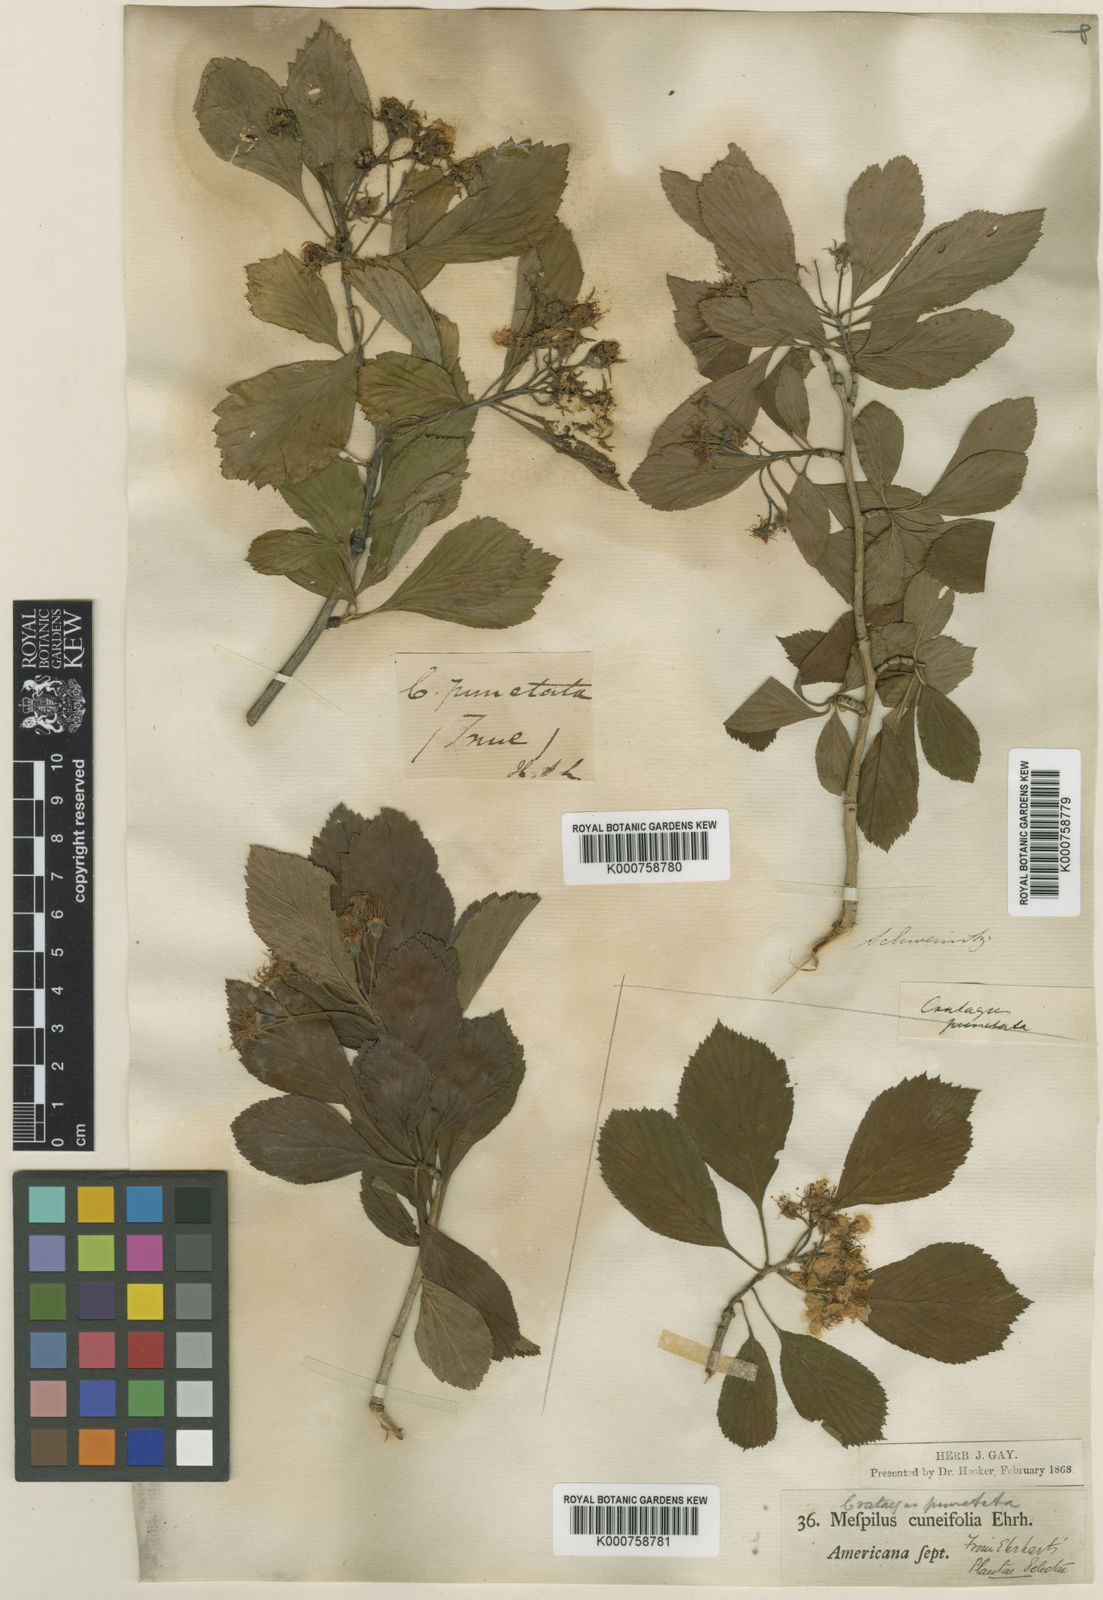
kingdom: Plantae
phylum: Tracheophyta
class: Magnoliopsida
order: Rosales
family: Rosaceae
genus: Crataegus
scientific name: Crataegus punctata
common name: Dotted hawthorn
